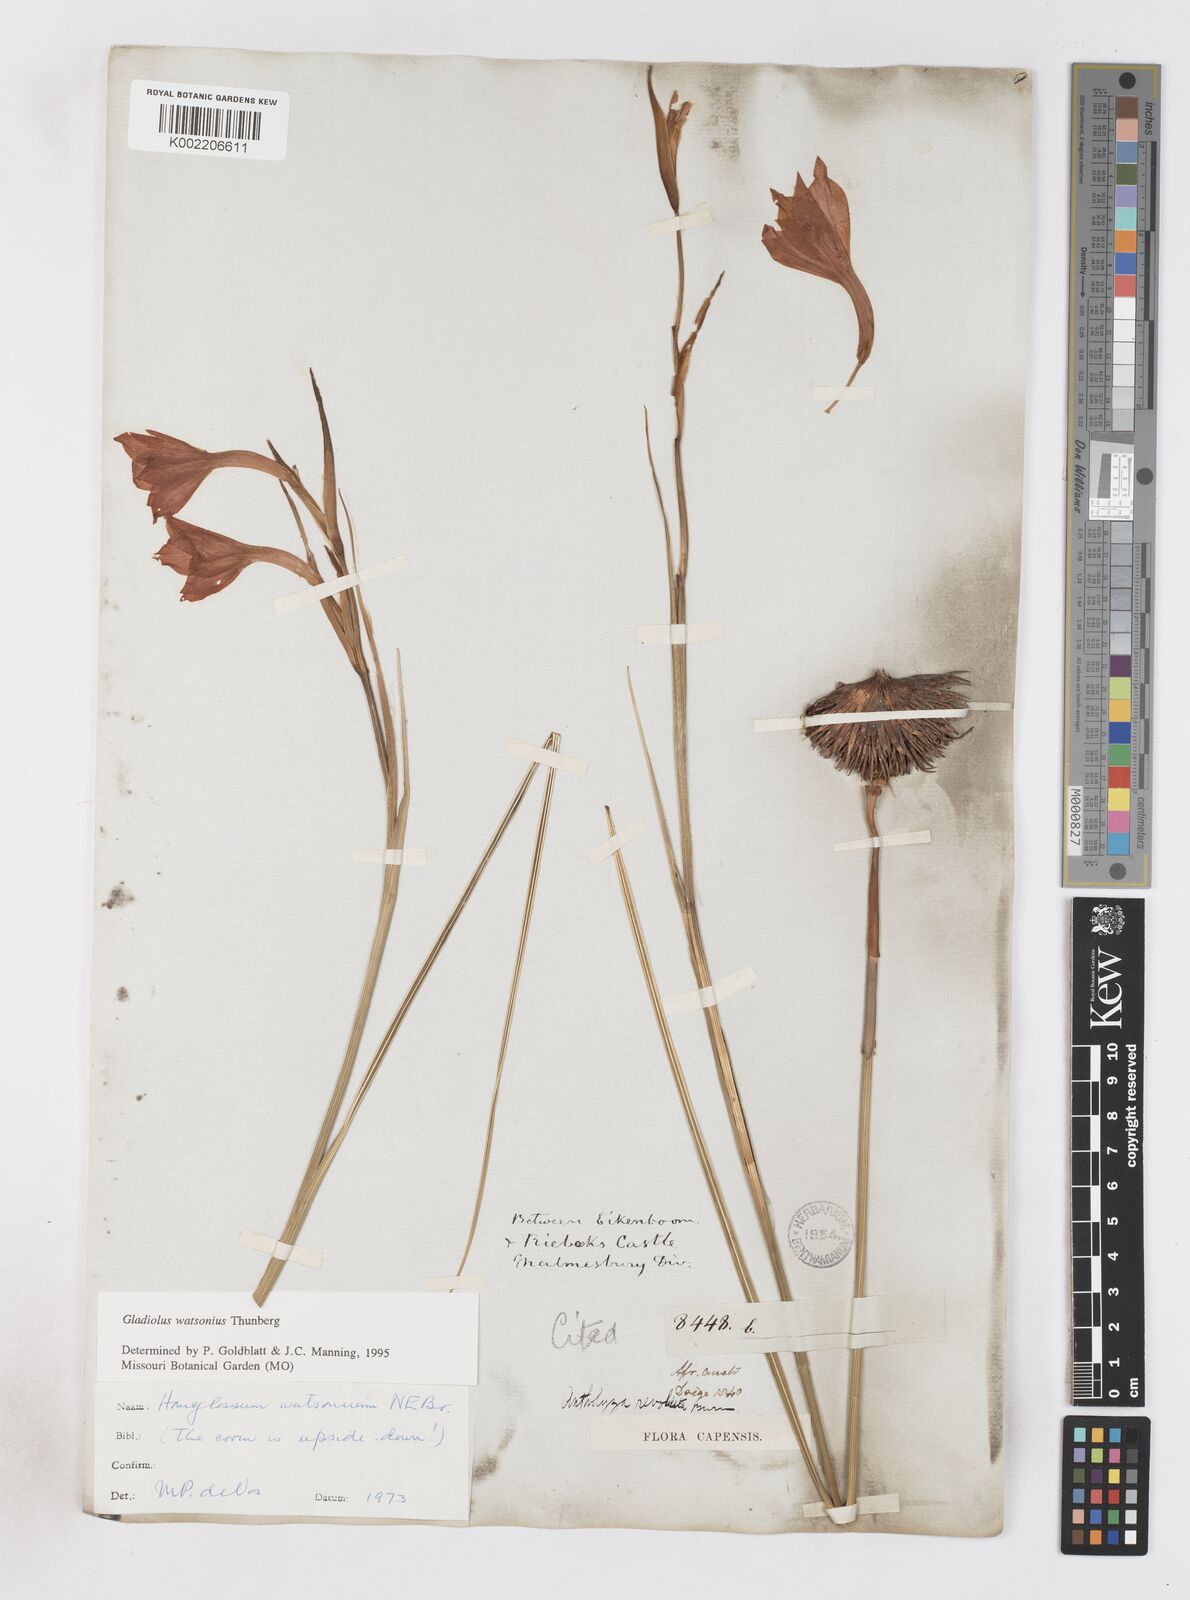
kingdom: Plantae
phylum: Tracheophyta
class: Liliopsida
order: Asparagales
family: Iridaceae
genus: Gladiolus
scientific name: Gladiolus watsonius
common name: Red afrikaner
